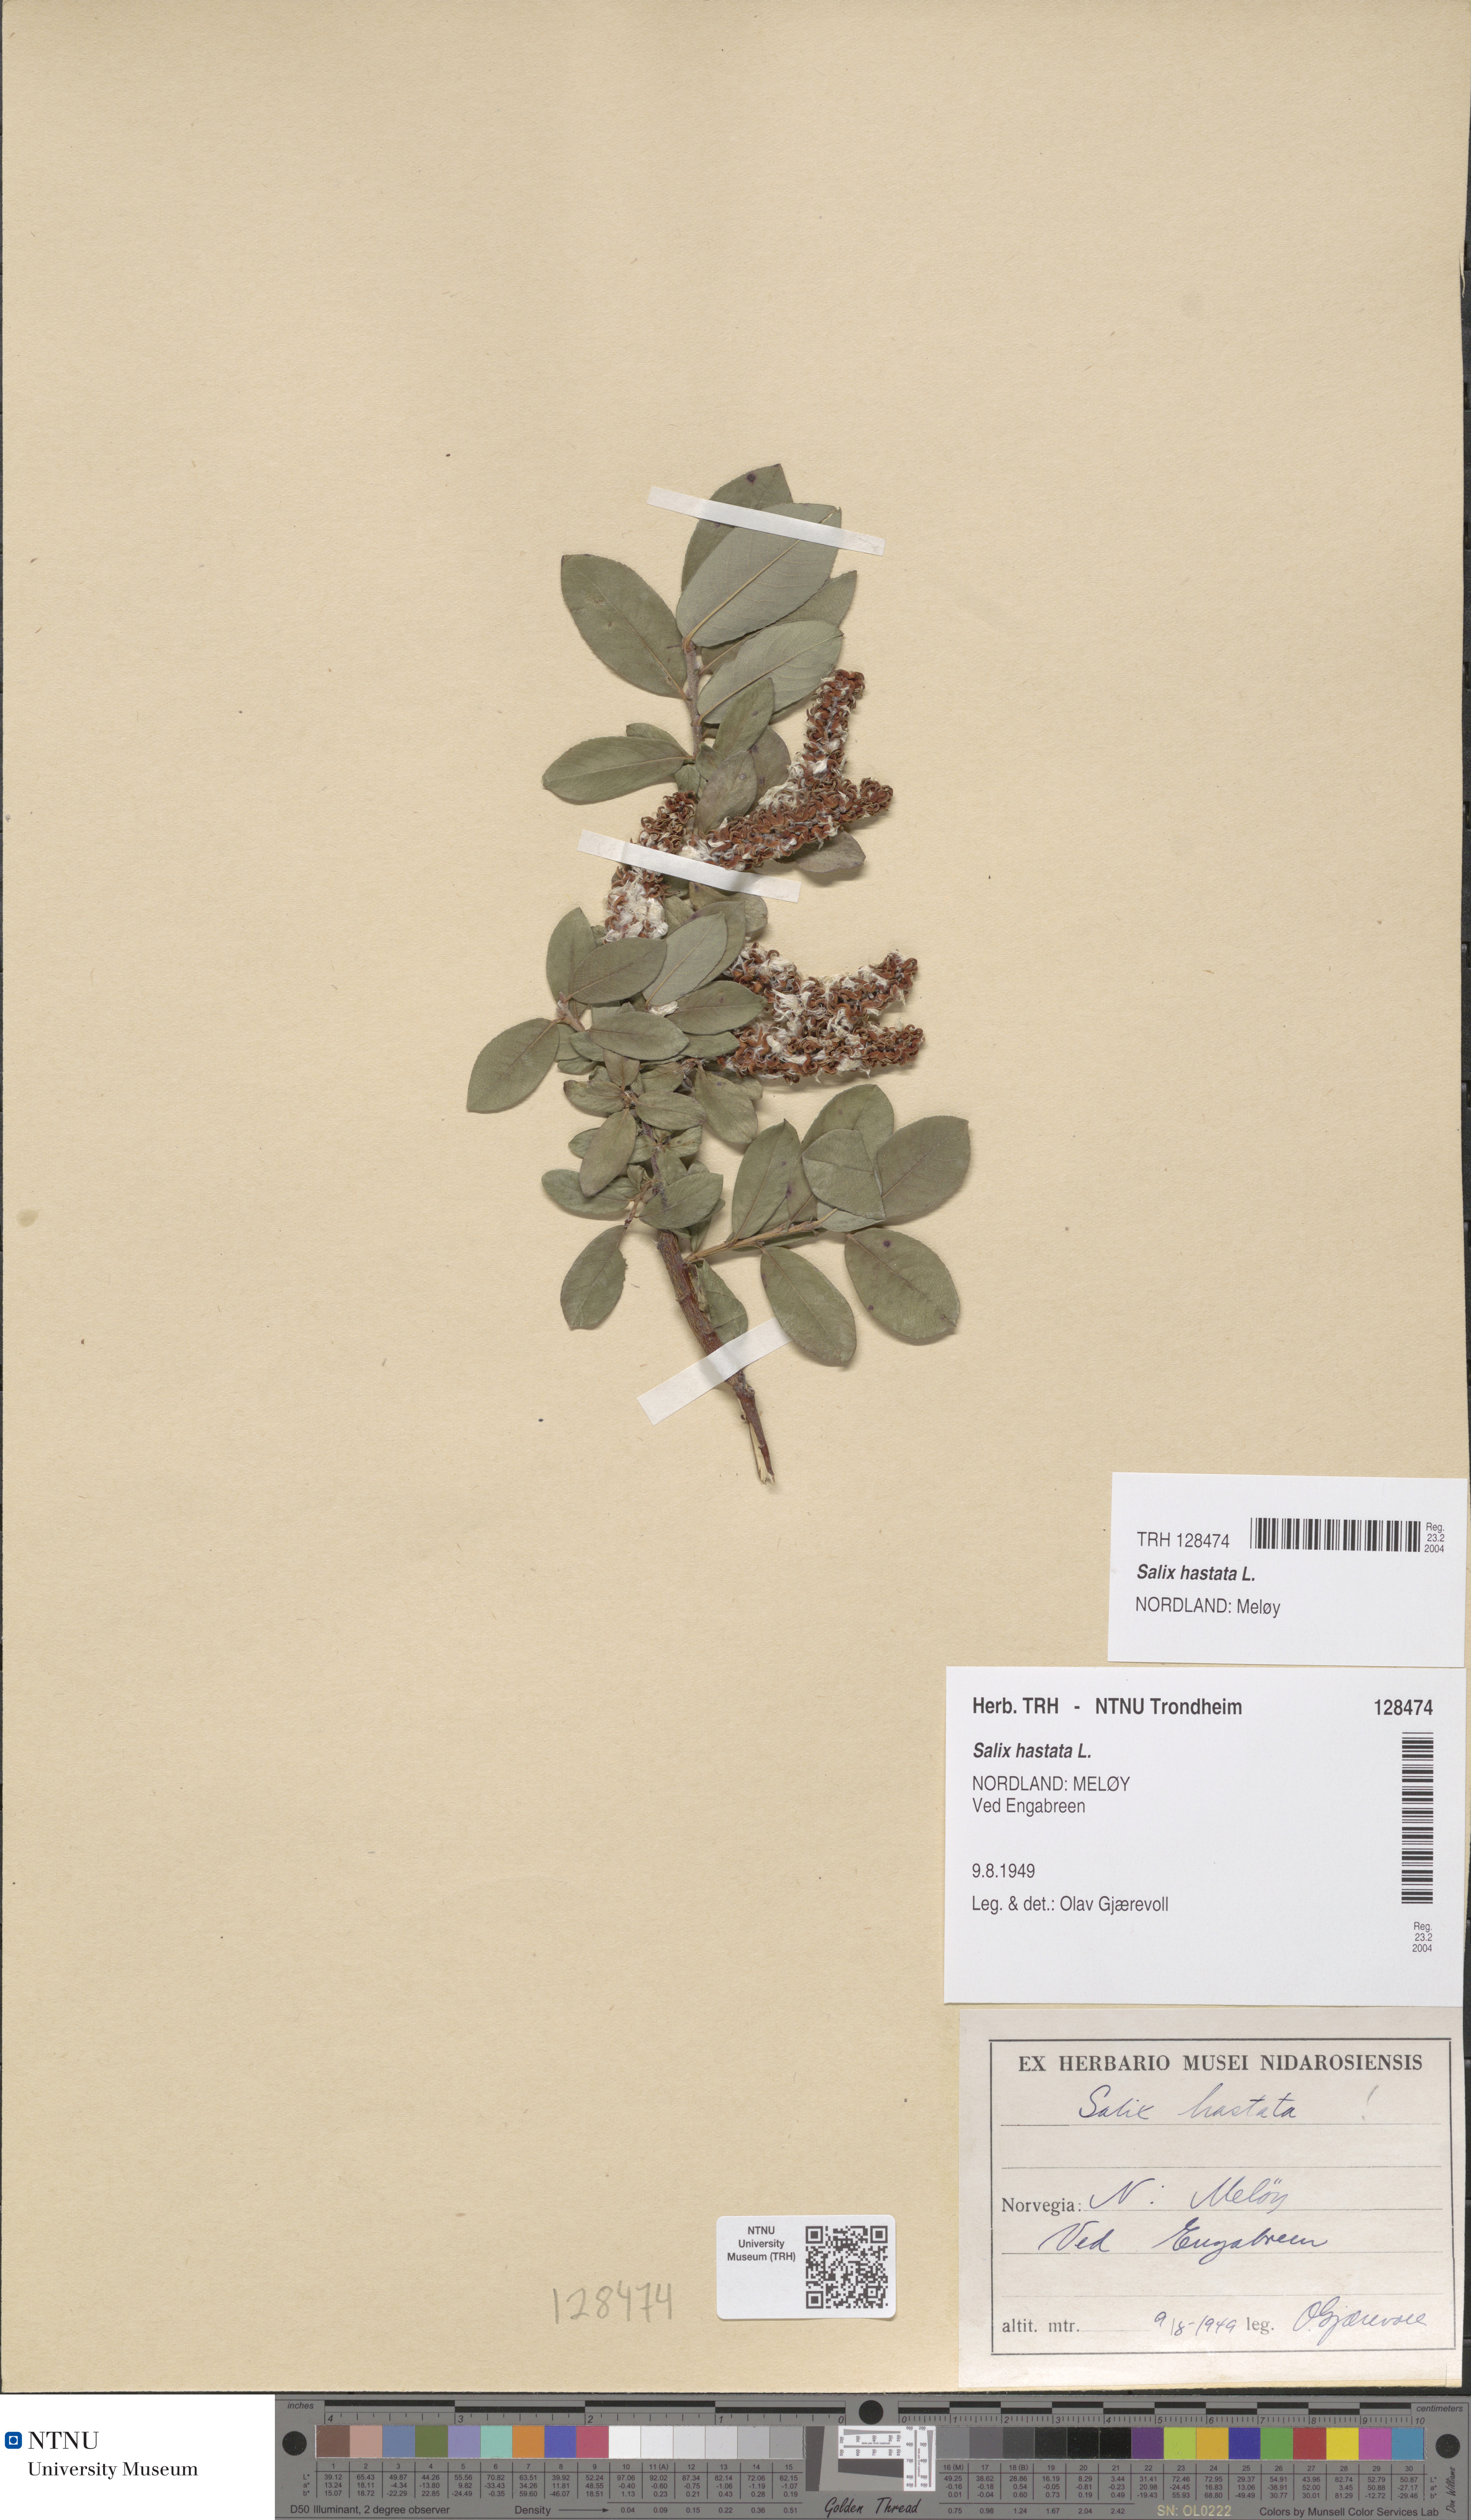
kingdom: Plantae
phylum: Tracheophyta
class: Magnoliopsida
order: Malpighiales
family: Salicaceae
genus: Salix
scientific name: Salix hastata
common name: Halberd willow
